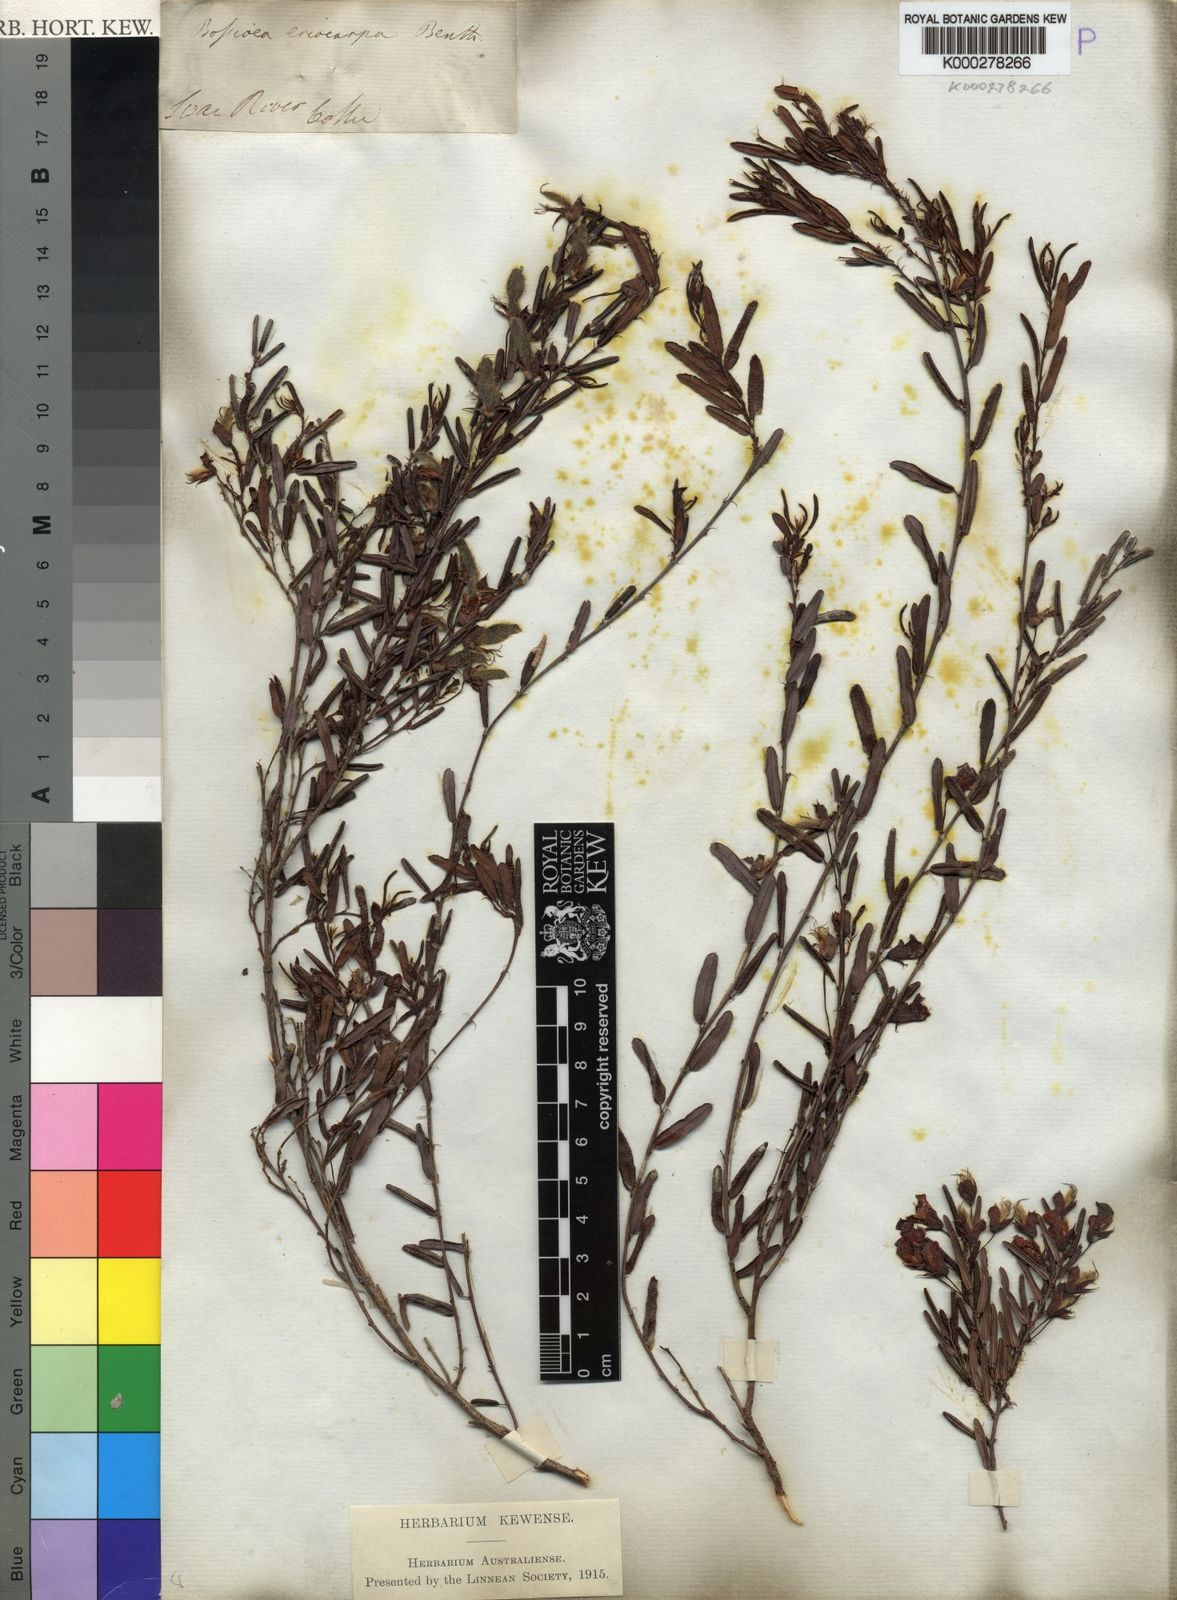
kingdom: Plantae
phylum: Tracheophyta
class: Magnoliopsida
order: Fabales
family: Fabaceae
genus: Bossiaea
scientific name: Bossiaea eriocarpa
